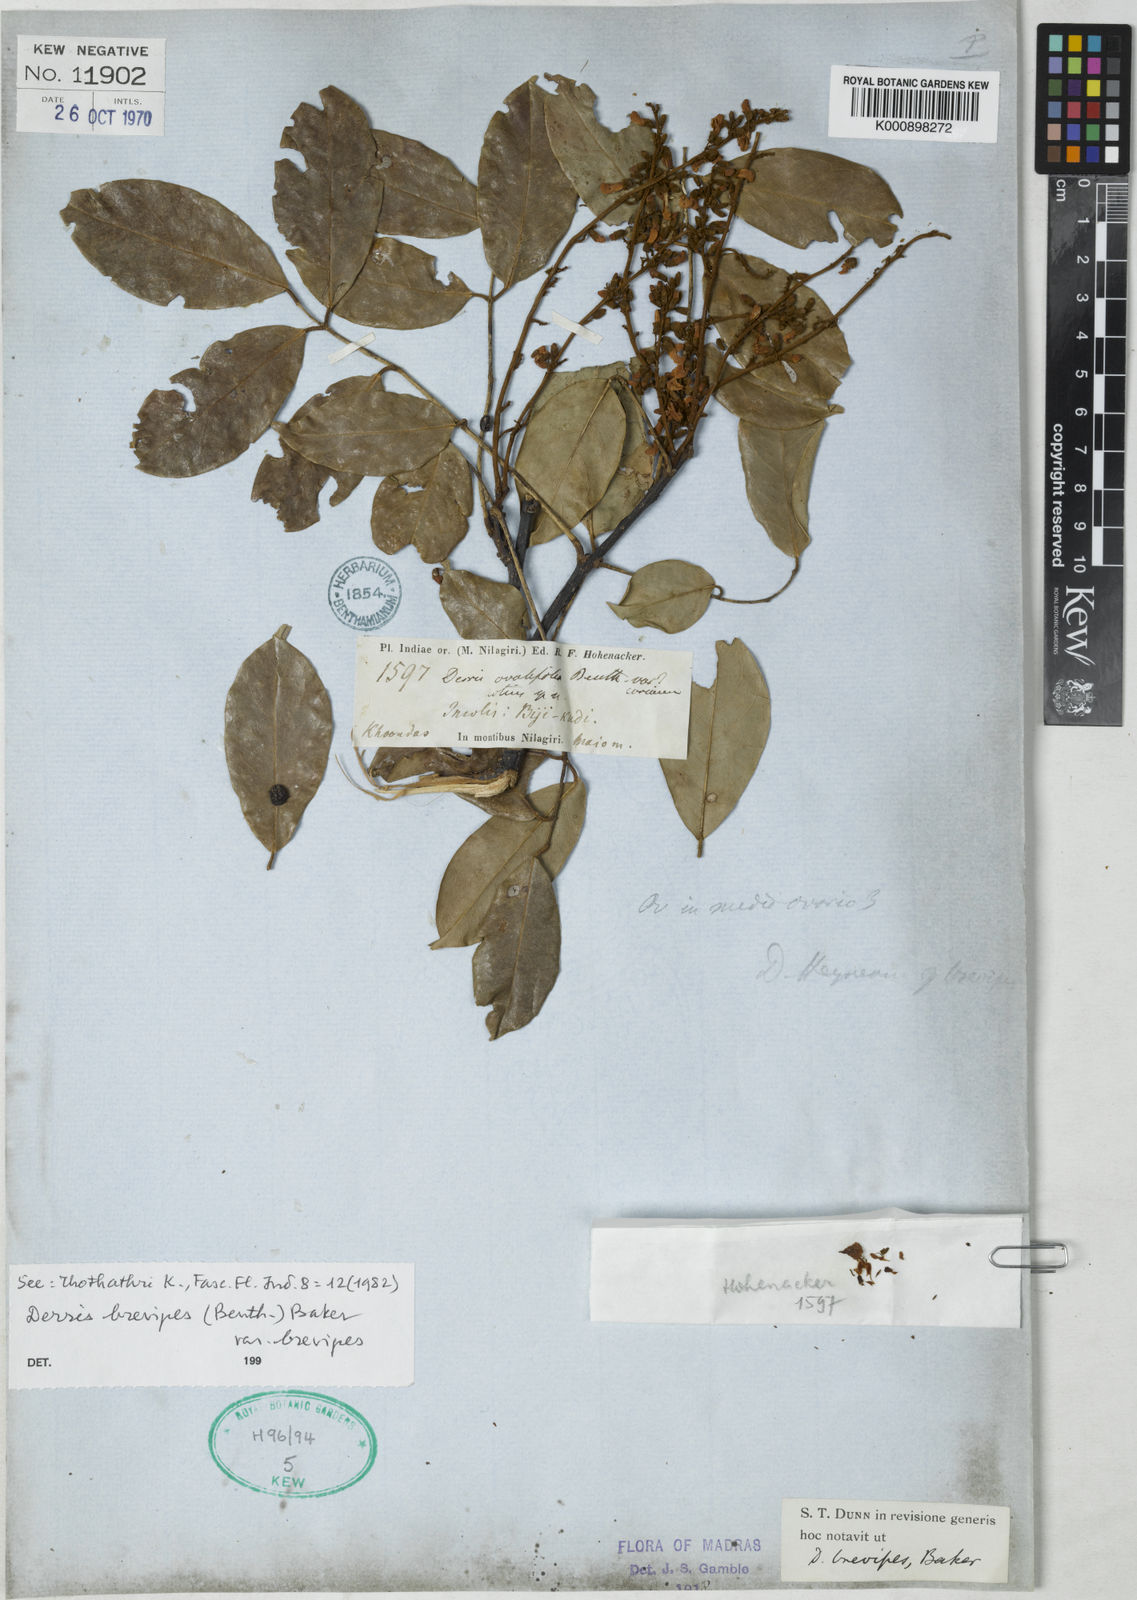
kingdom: Plantae
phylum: Tracheophyta
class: Magnoliopsida
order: Fabales
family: Fabaceae
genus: Derris
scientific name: Derris brevipes
